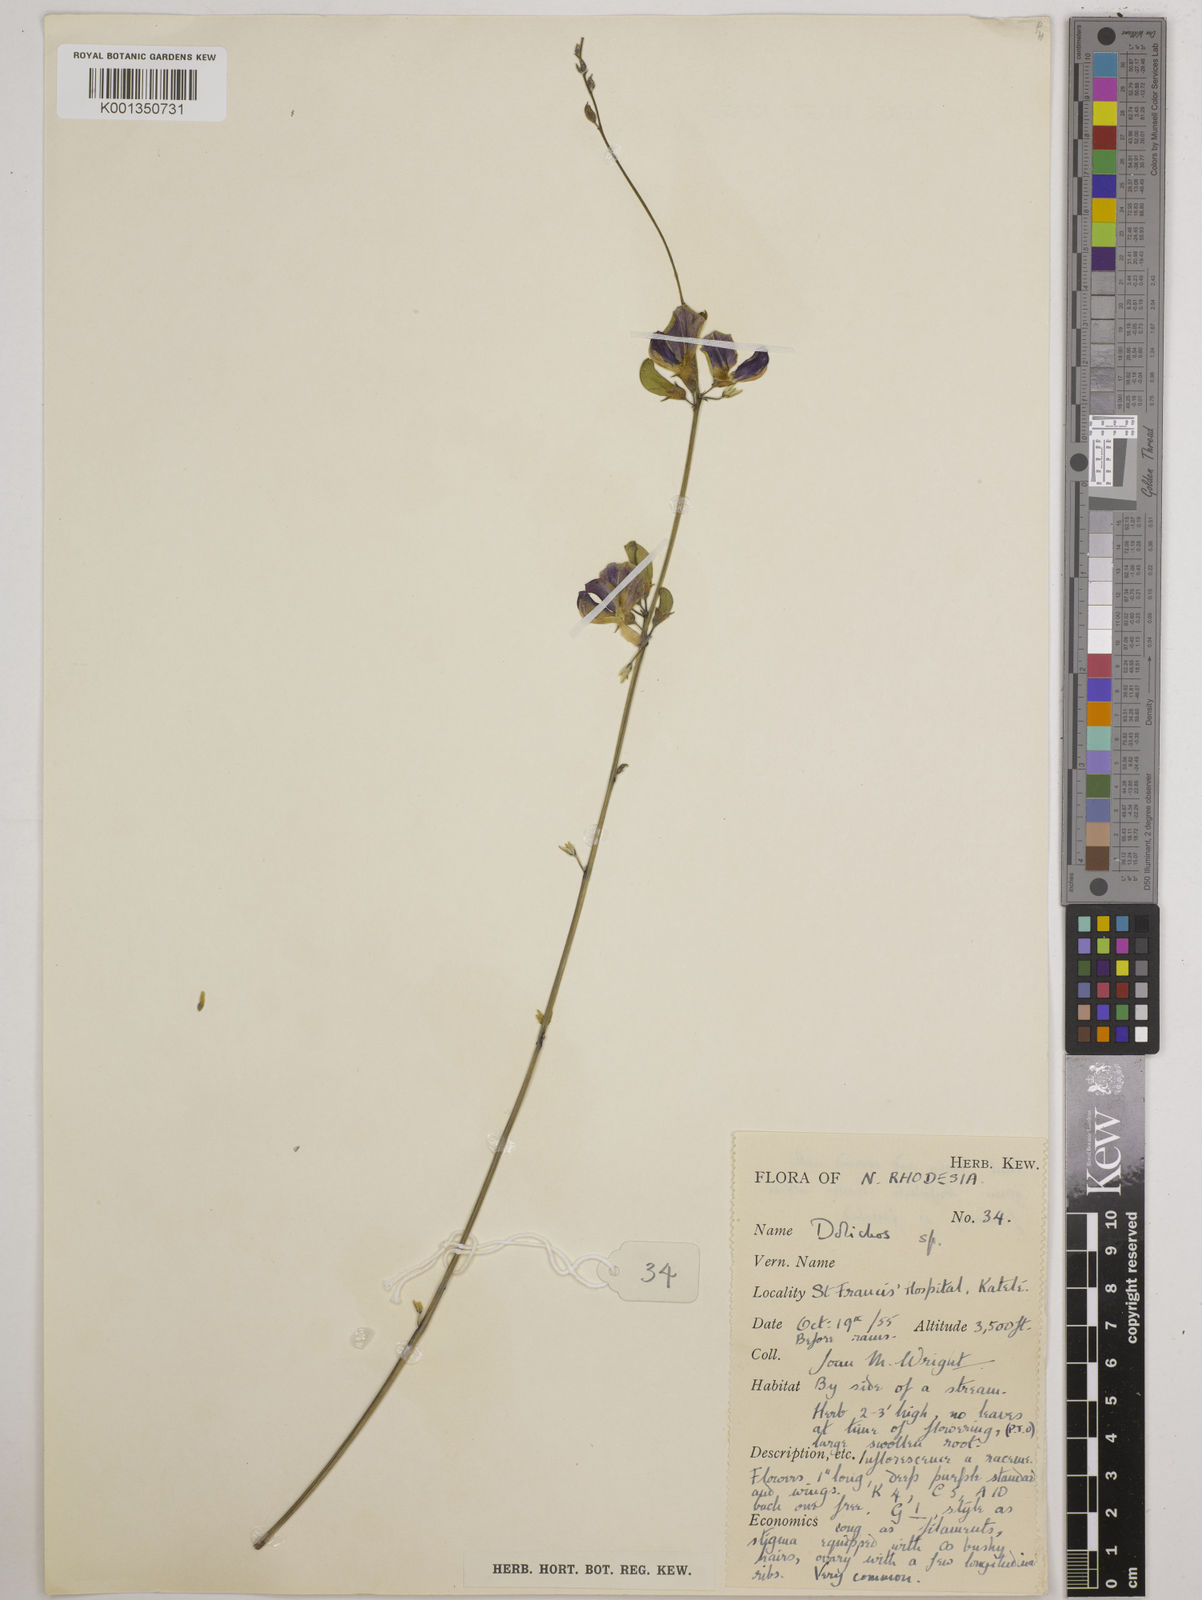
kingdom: Plantae
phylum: Tracheophyta
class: Magnoliopsida
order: Fabales
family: Fabaceae
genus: Dolichos
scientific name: Dolichos
